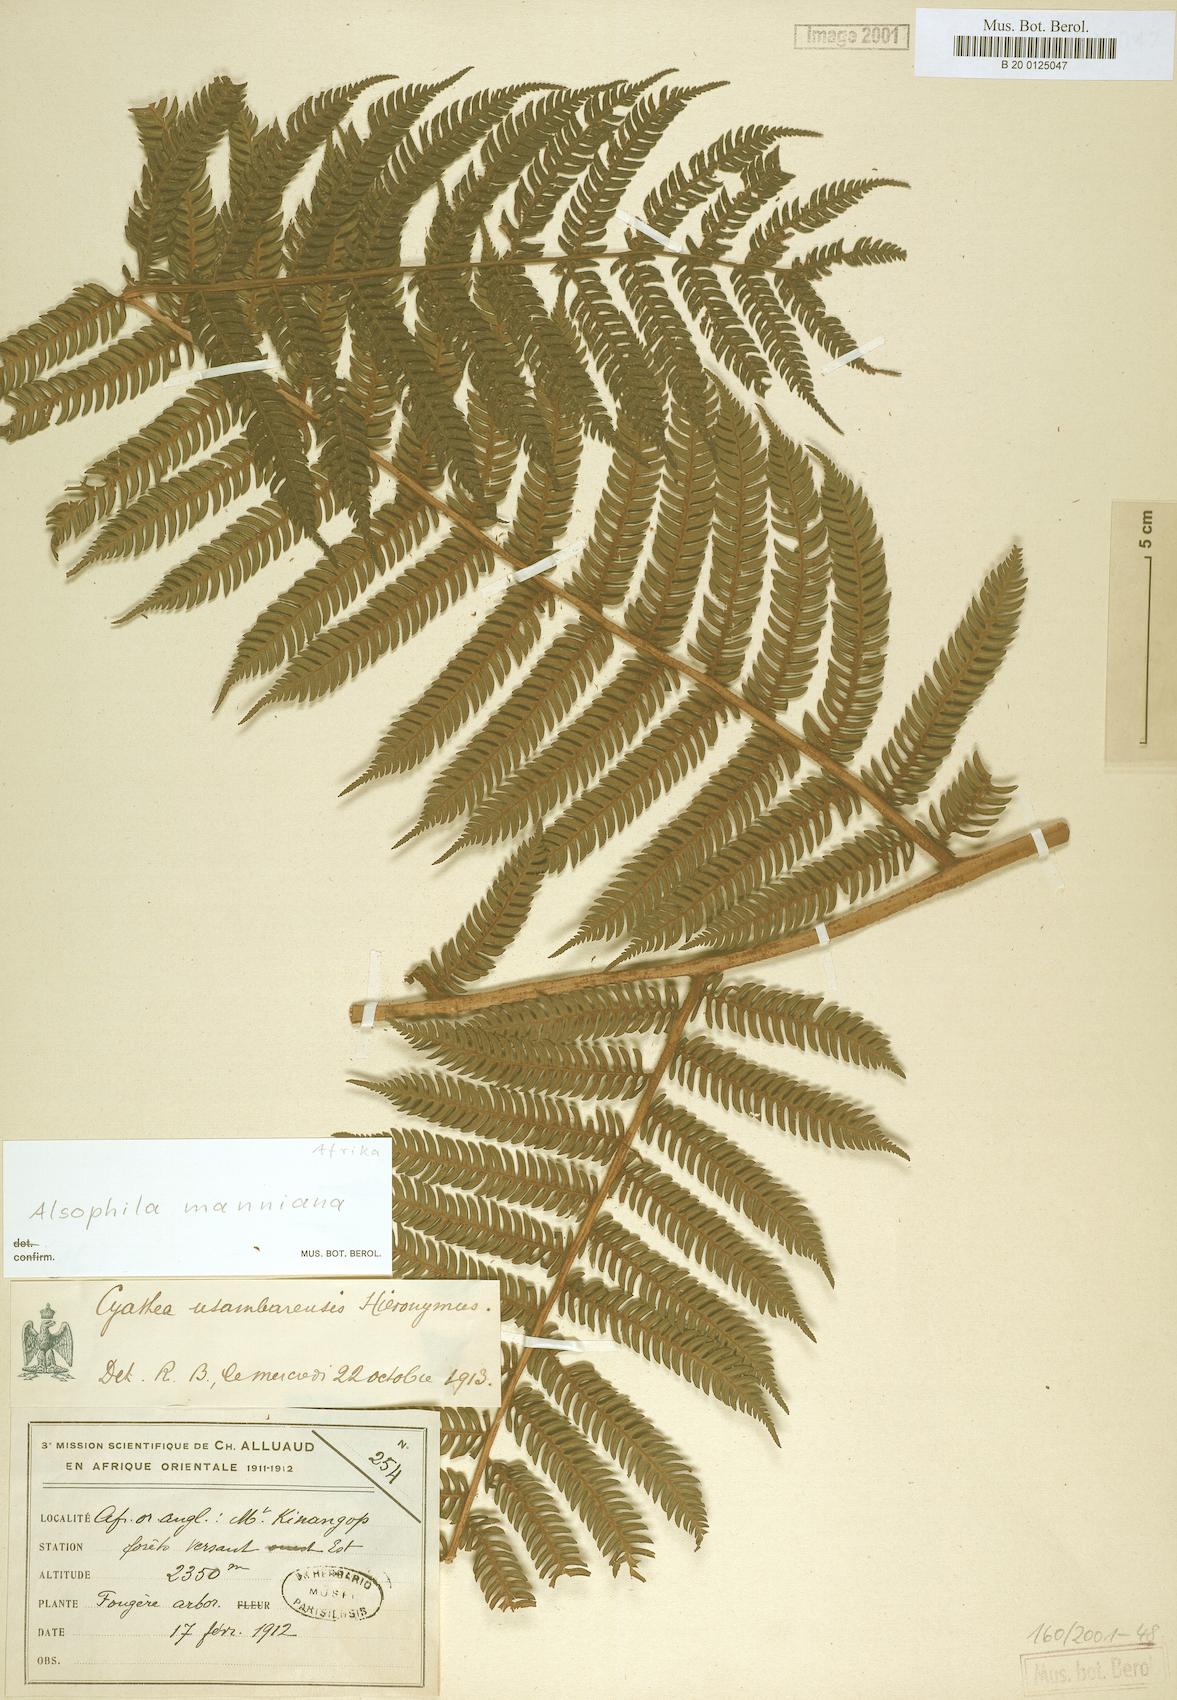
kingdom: Plantae
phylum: Tracheophyta
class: Polypodiopsida
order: Cyatheales
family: Cyatheaceae
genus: Alsophila
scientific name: Alsophila manniana
